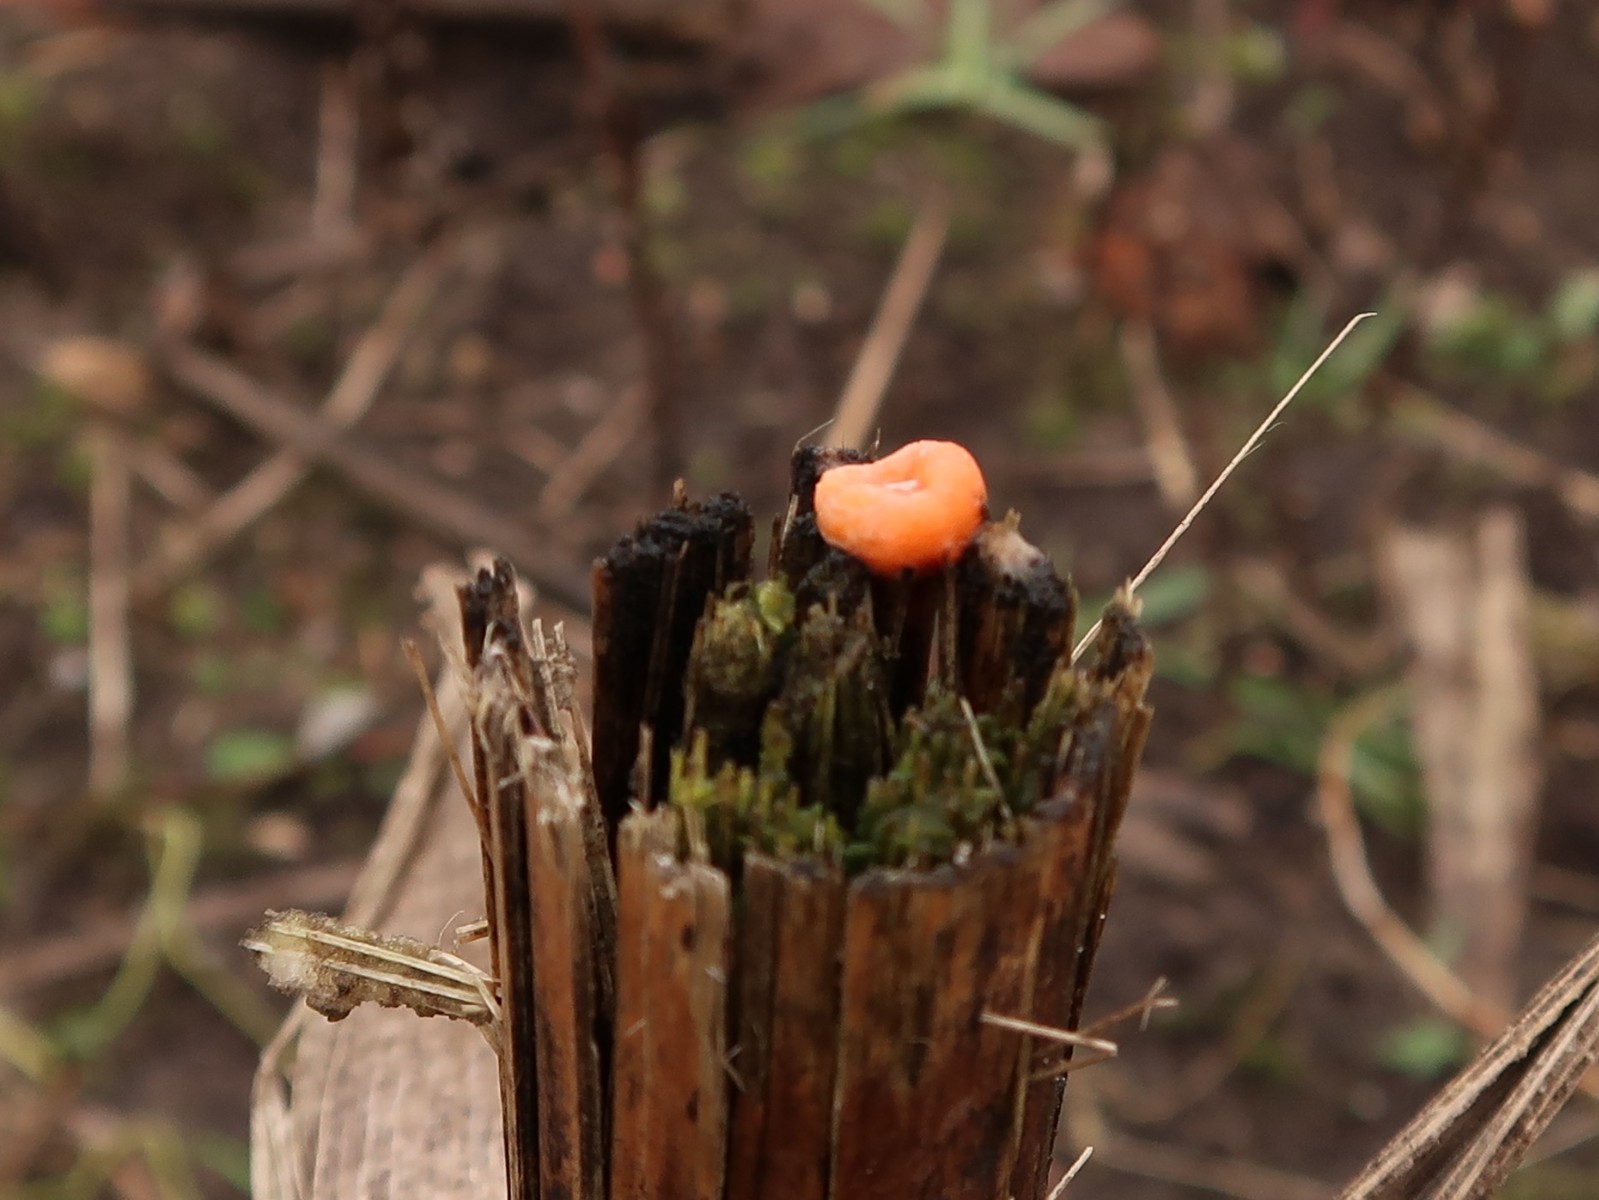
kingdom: Fungi
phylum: Ascomycota
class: Sordariomycetes
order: Hypocreales
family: Nectriaceae
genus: Fusarium
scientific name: Fusarium
